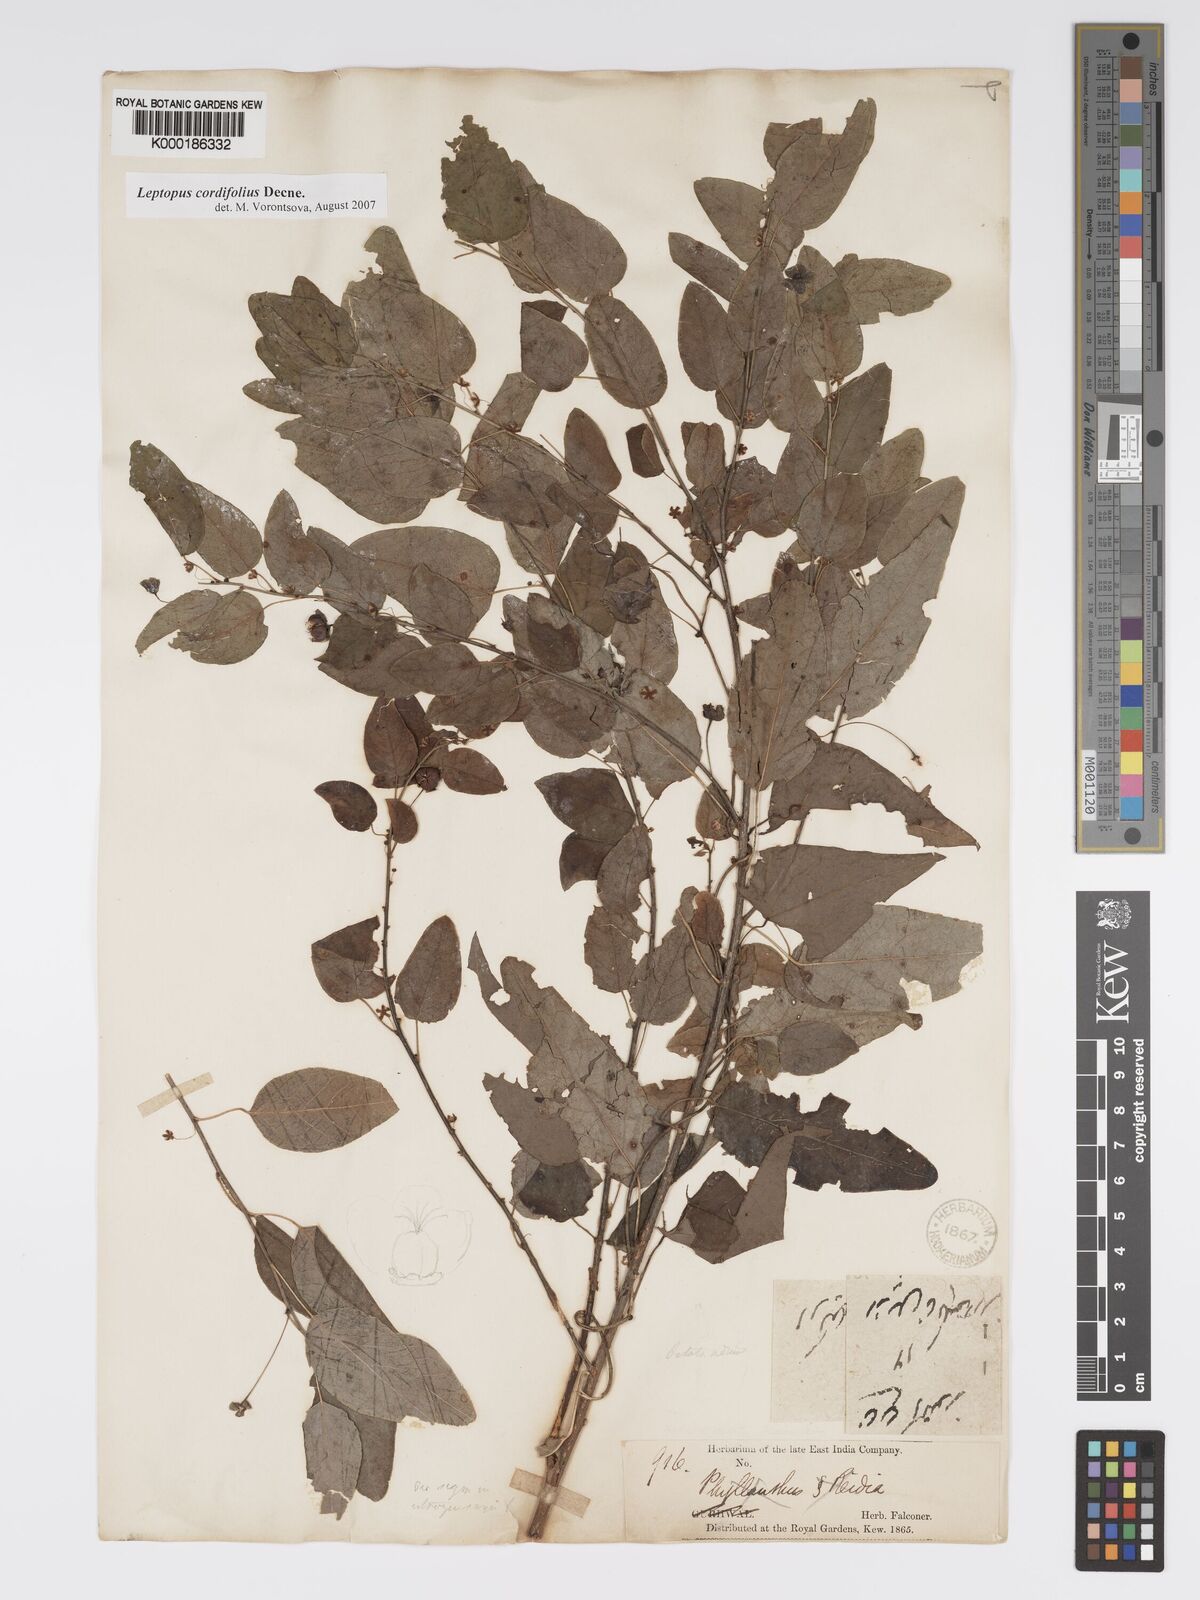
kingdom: Plantae
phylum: Tracheophyta
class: Magnoliopsida
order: Malpighiales
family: Phyllanthaceae
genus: Leptopus
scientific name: Leptopus cordifolius
